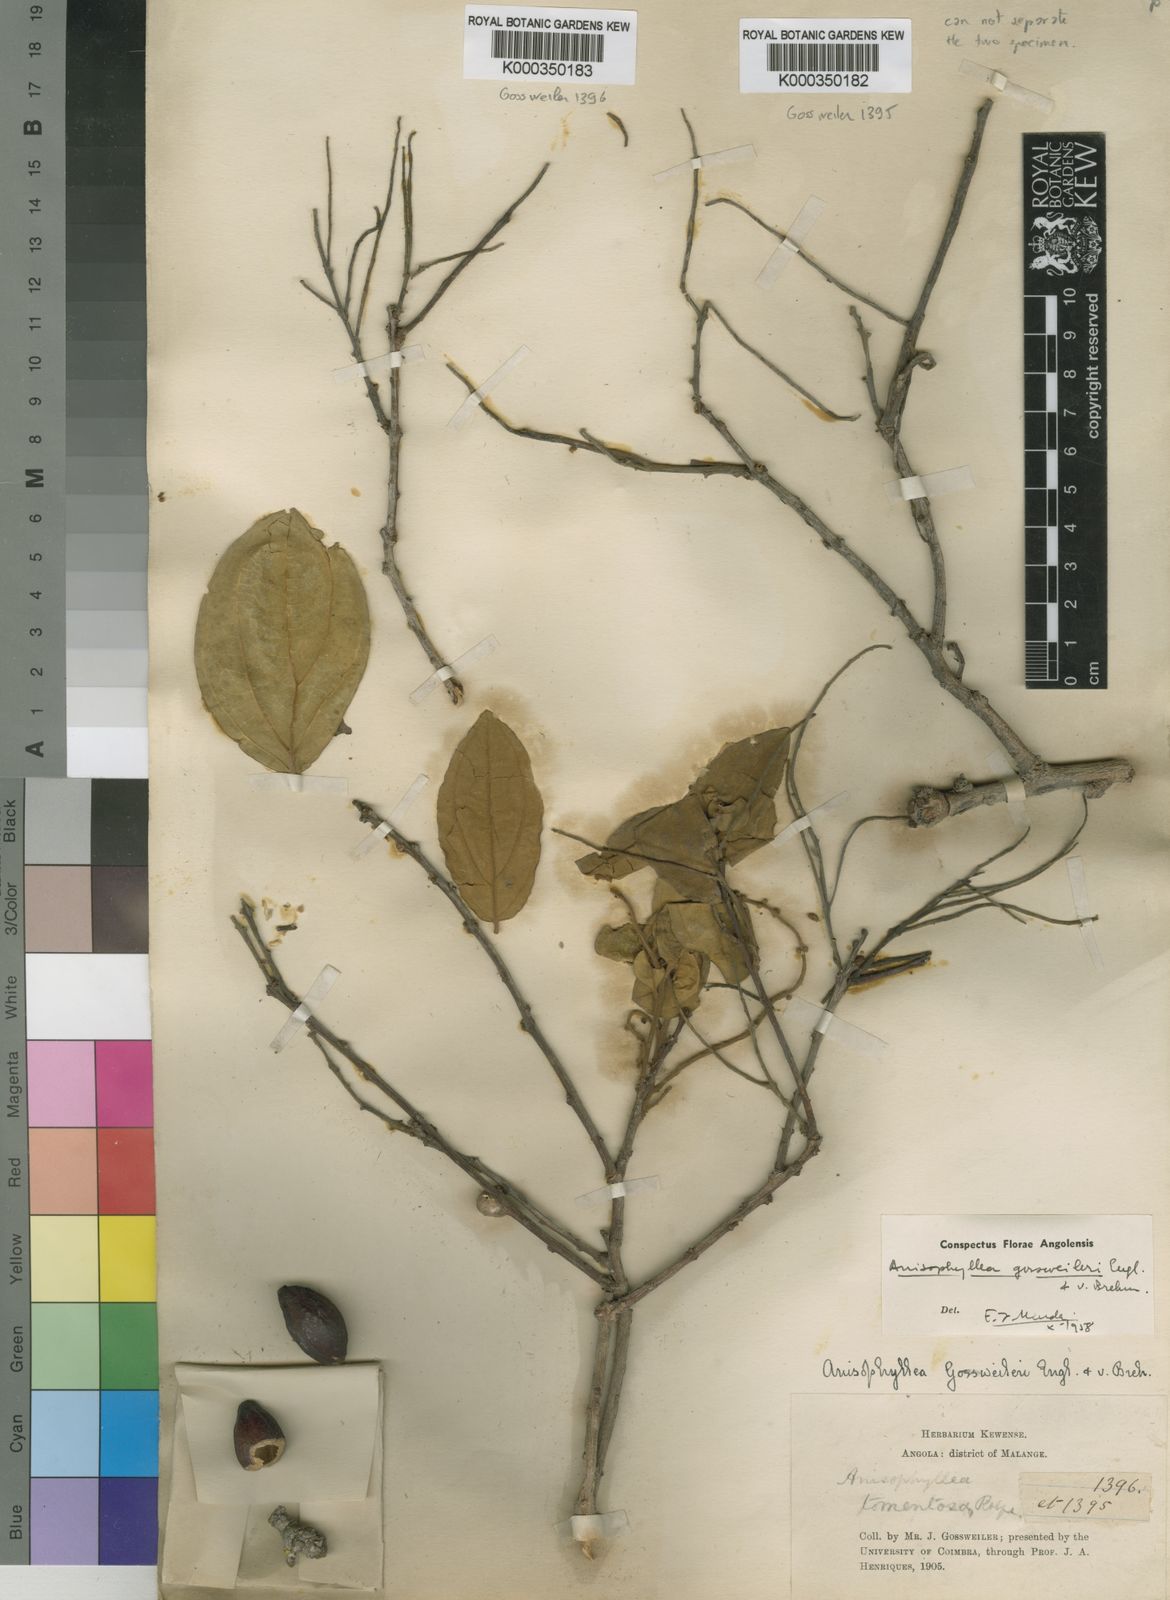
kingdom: Plantae
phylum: Tracheophyta
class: Magnoliopsida
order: Cucurbitales
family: Anisophylleaceae
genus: Anisophyllea
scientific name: Anisophyllea boehmii
